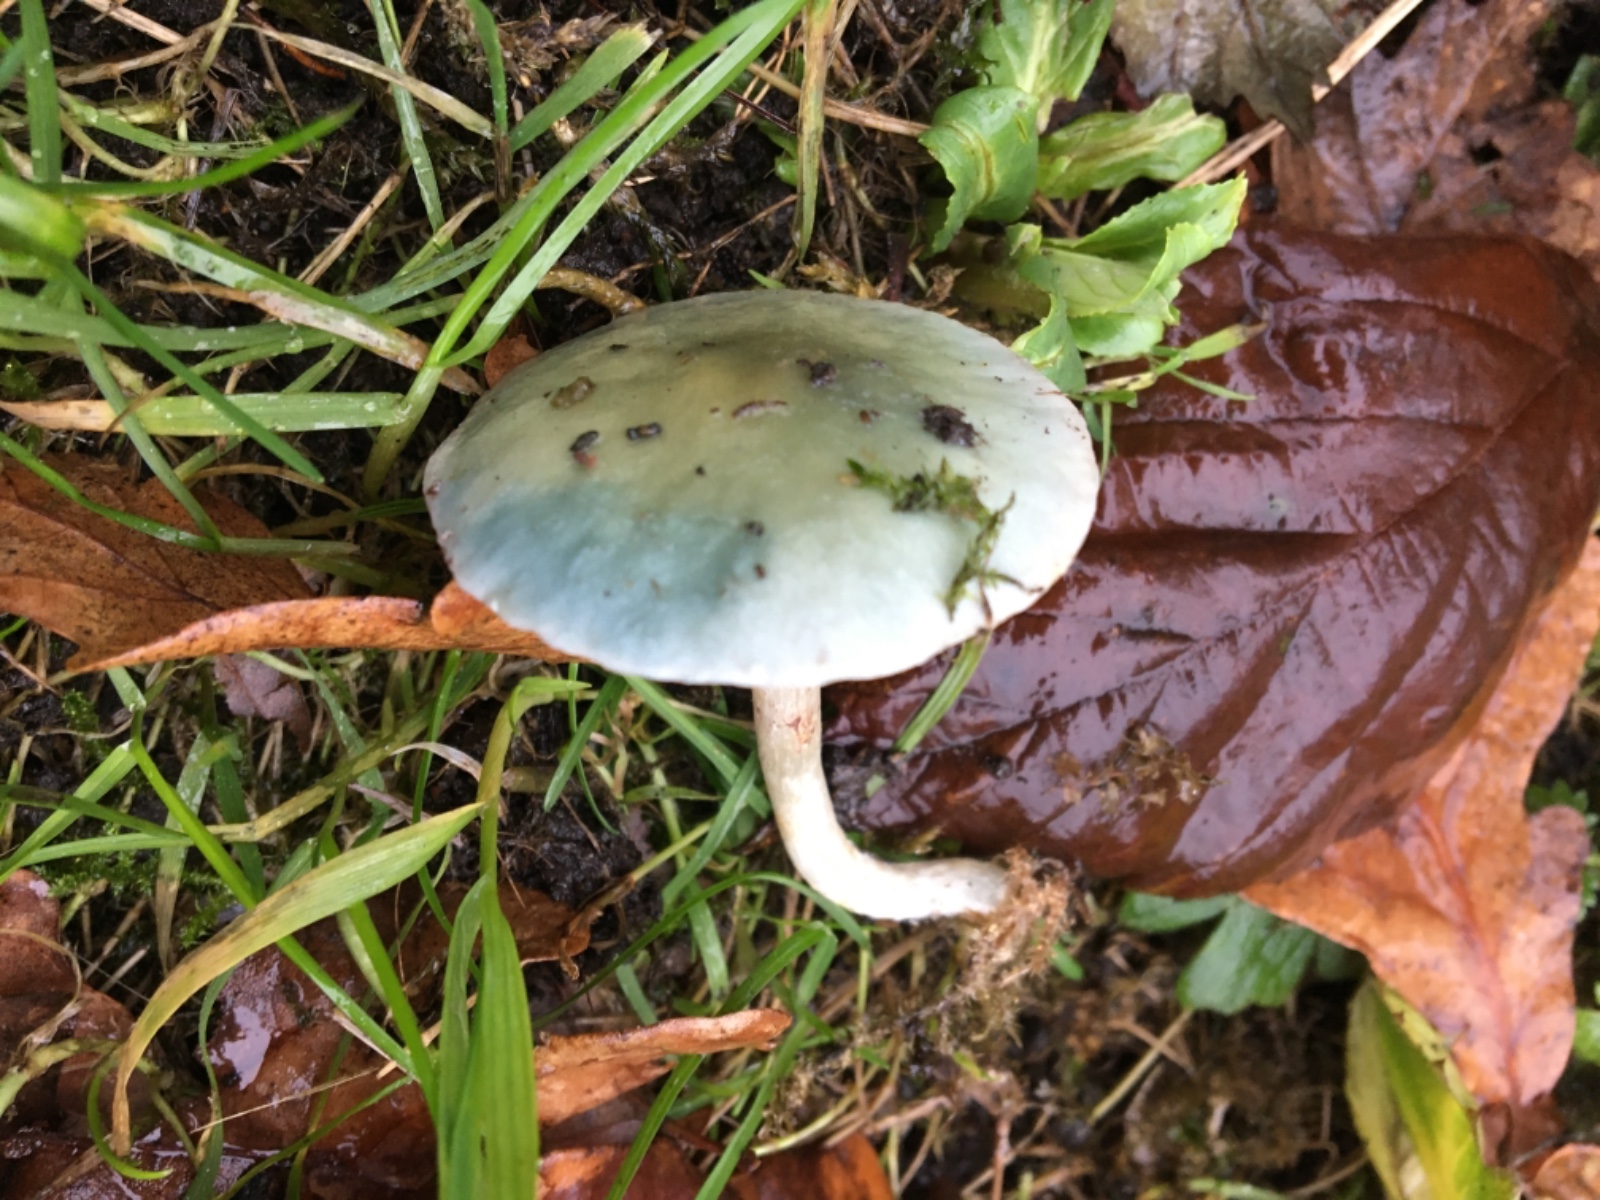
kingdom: Fungi
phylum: Basidiomycota
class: Agaricomycetes
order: Agaricales
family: Strophariaceae
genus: Stropharia
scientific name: Stropharia cyanea
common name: blågrøn bredblad
